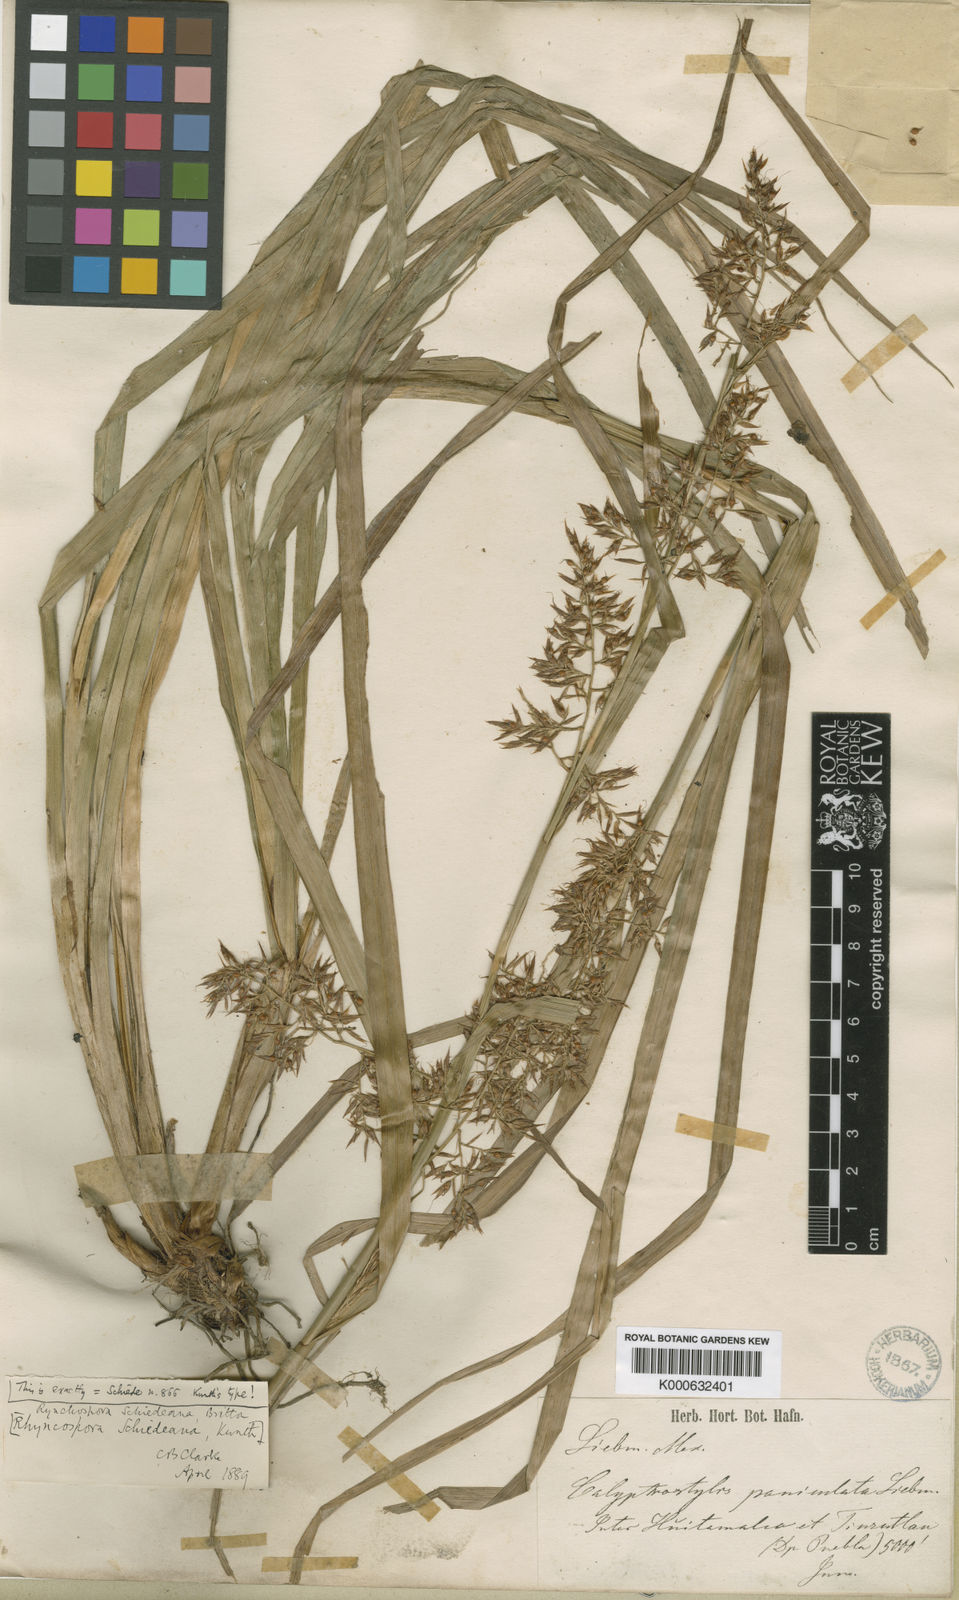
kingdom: Plantae
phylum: Tracheophyta
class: Liliopsida
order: Poales
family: Cyperaceae
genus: Rhynchospora
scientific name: Rhynchospora schiedeana
